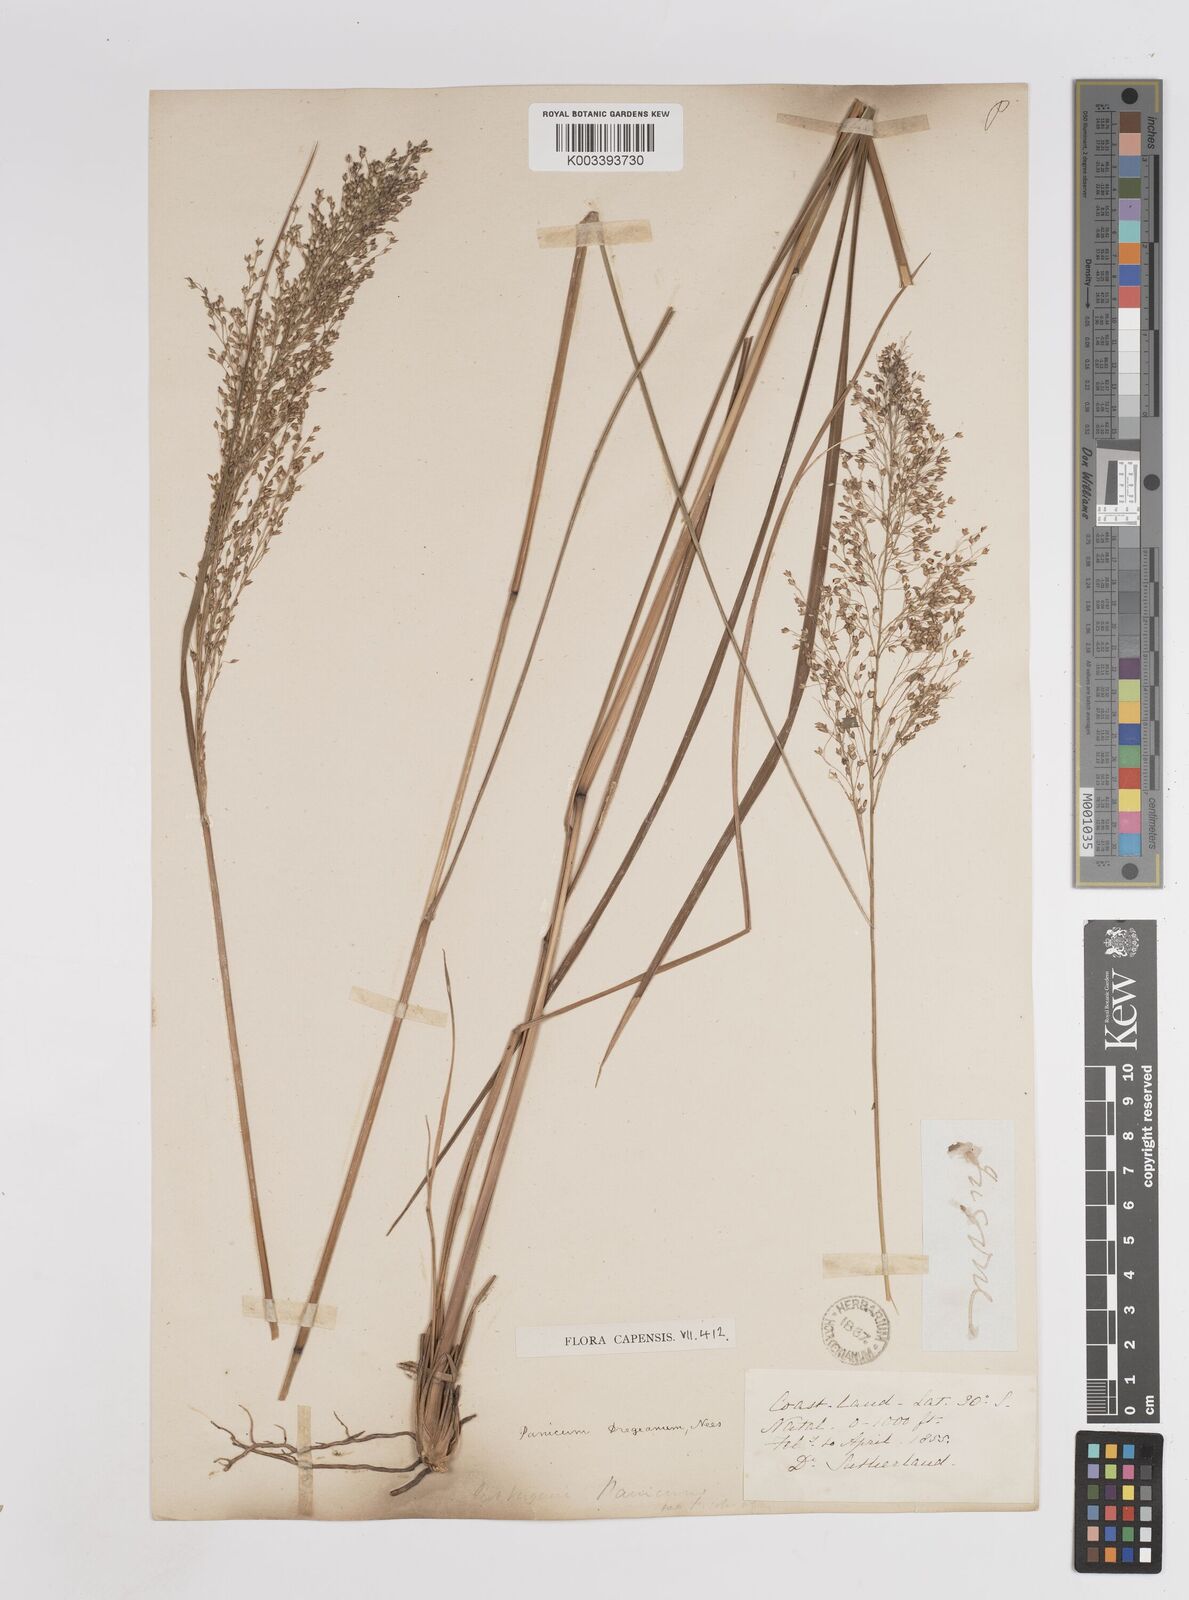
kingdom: Plantae
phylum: Tracheophyta
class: Liliopsida
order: Poales
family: Poaceae
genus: Panicum
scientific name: Panicum dregeanum
